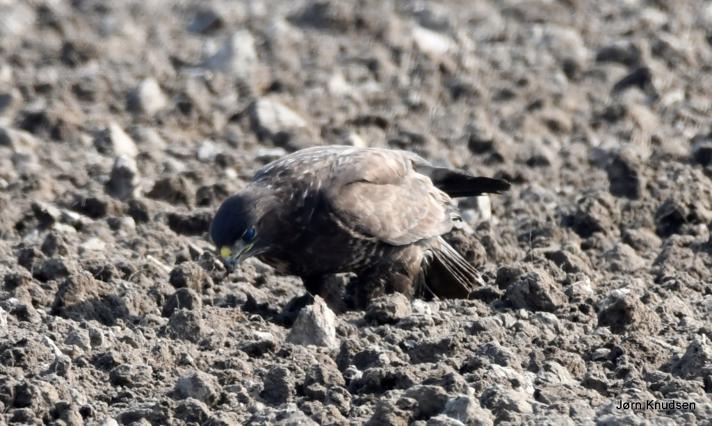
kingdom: Animalia
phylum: Chordata
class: Aves
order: Accipitriformes
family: Accipitridae
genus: Buteo
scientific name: Buteo buteo
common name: Musvåge
